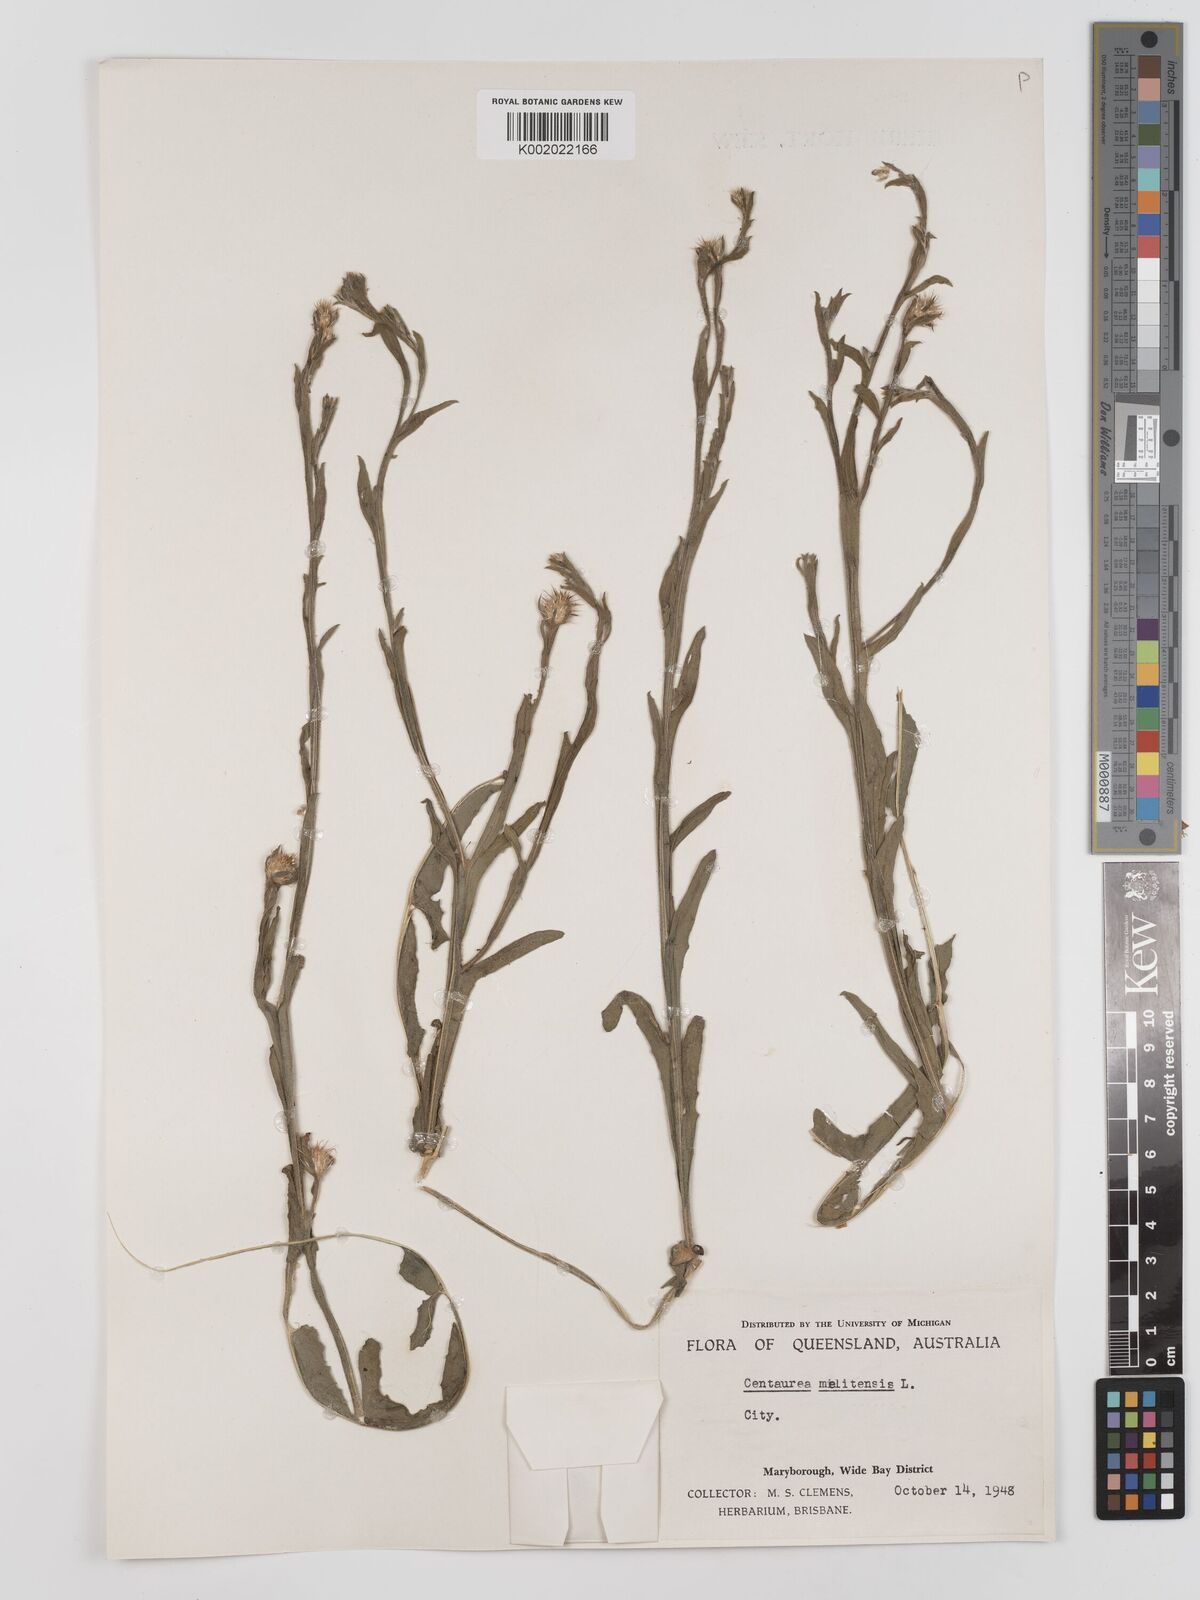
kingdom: Plantae
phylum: Tracheophyta
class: Magnoliopsida
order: Asterales
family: Asteraceae
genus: Centaurea
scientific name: Centaurea melitensis
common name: Maltese star-thistle
